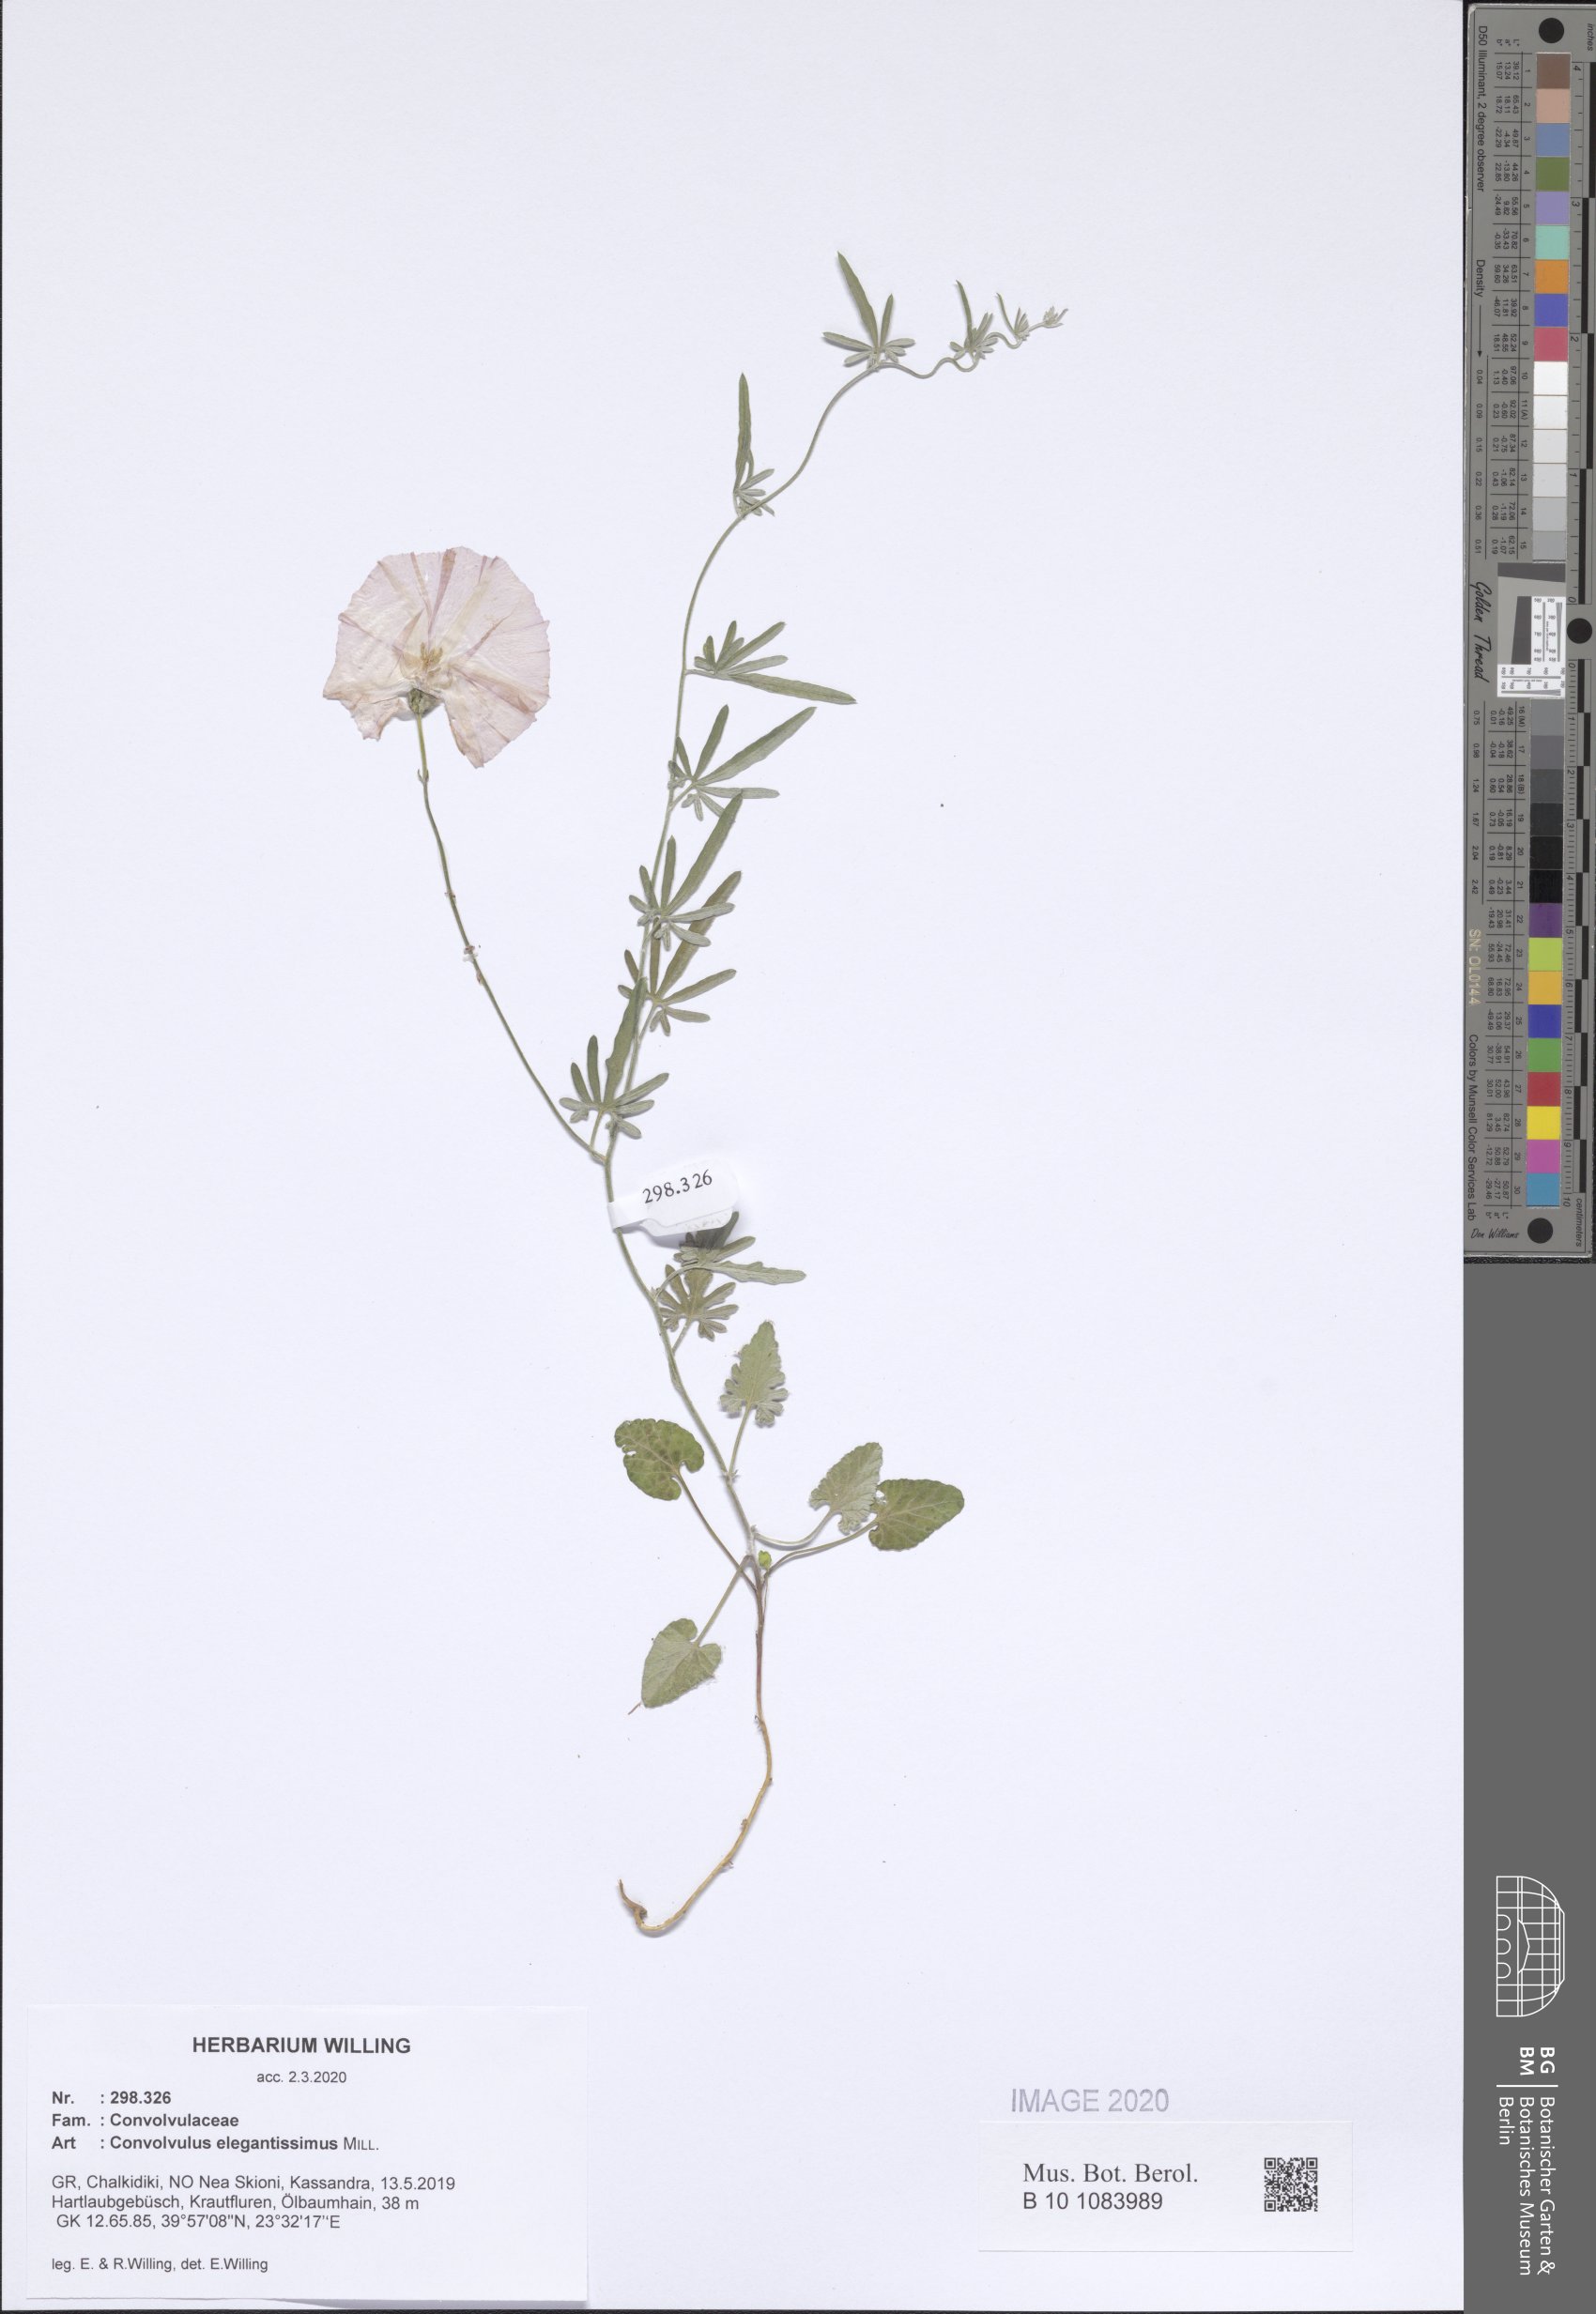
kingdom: Plantae
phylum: Tracheophyta
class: Magnoliopsida
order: Solanales
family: Convolvulaceae
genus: Convolvulus
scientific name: Convolvulus elegantissimus
